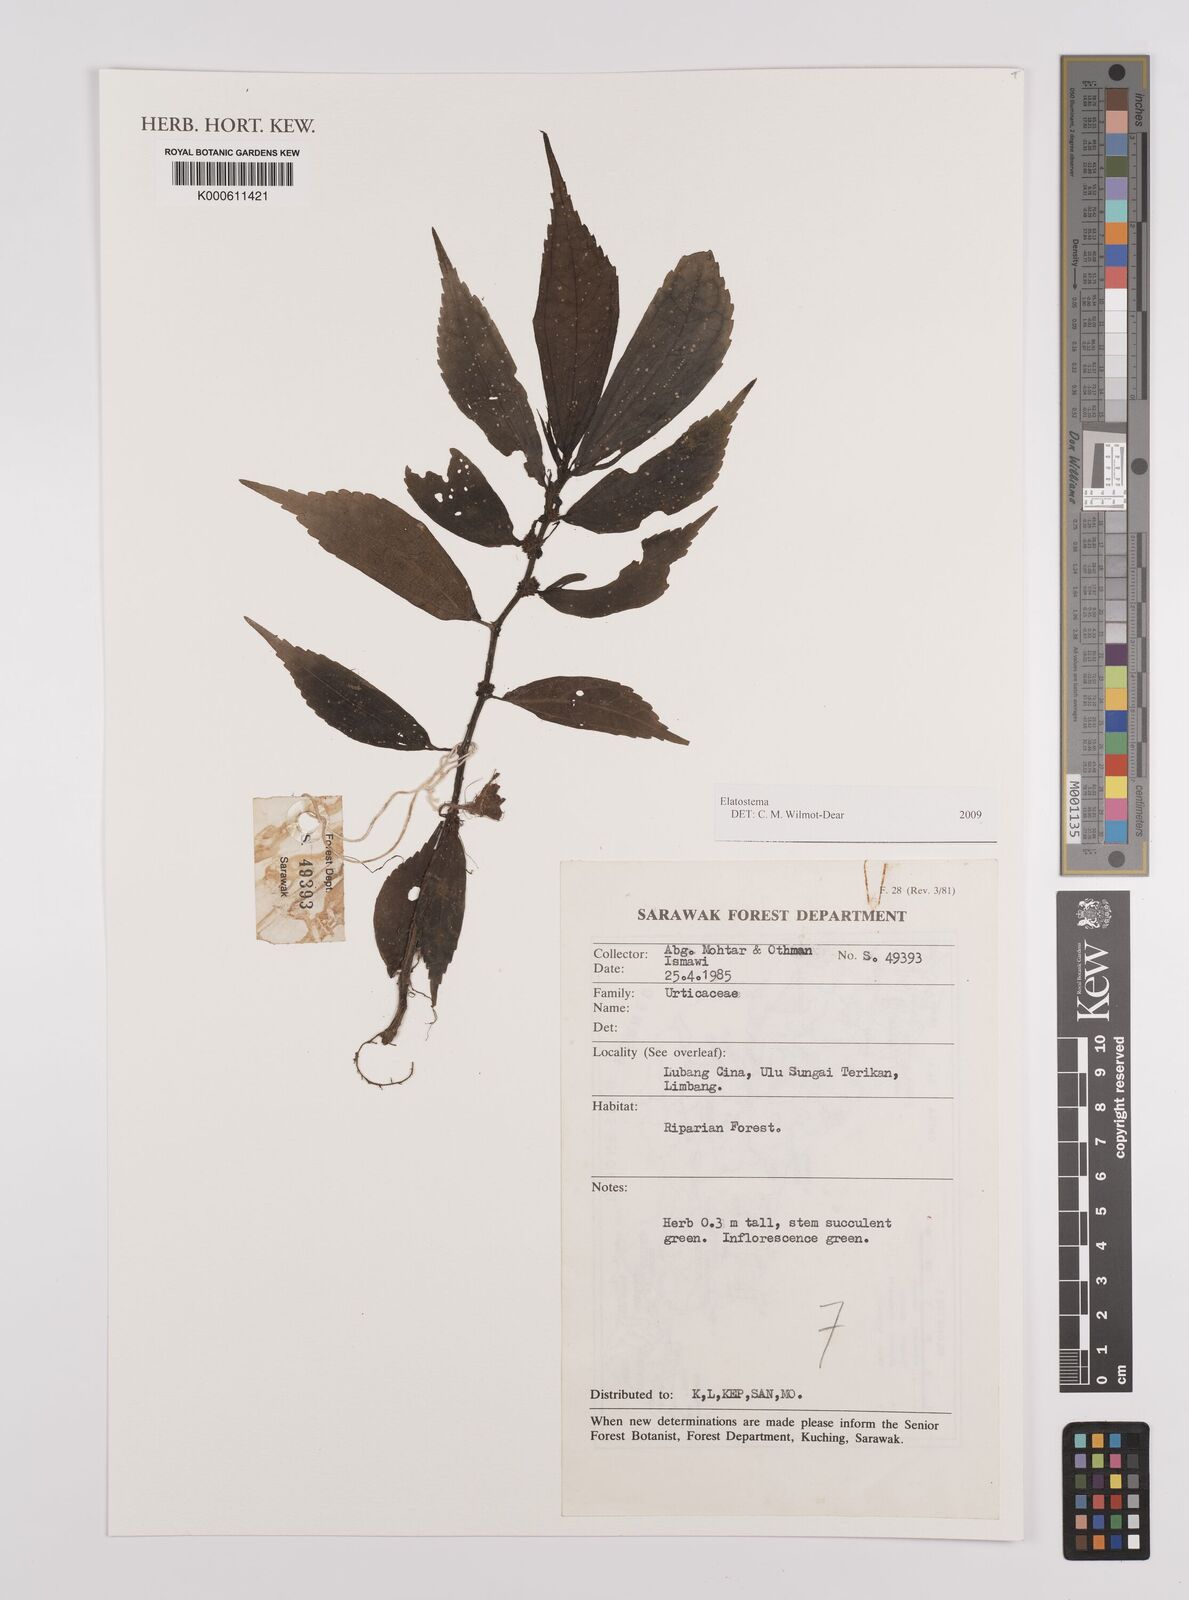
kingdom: Plantae
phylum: Tracheophyta
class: Magnoliopsida
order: Rosales
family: Urticaceae
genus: Elatostema
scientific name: Elatostema
